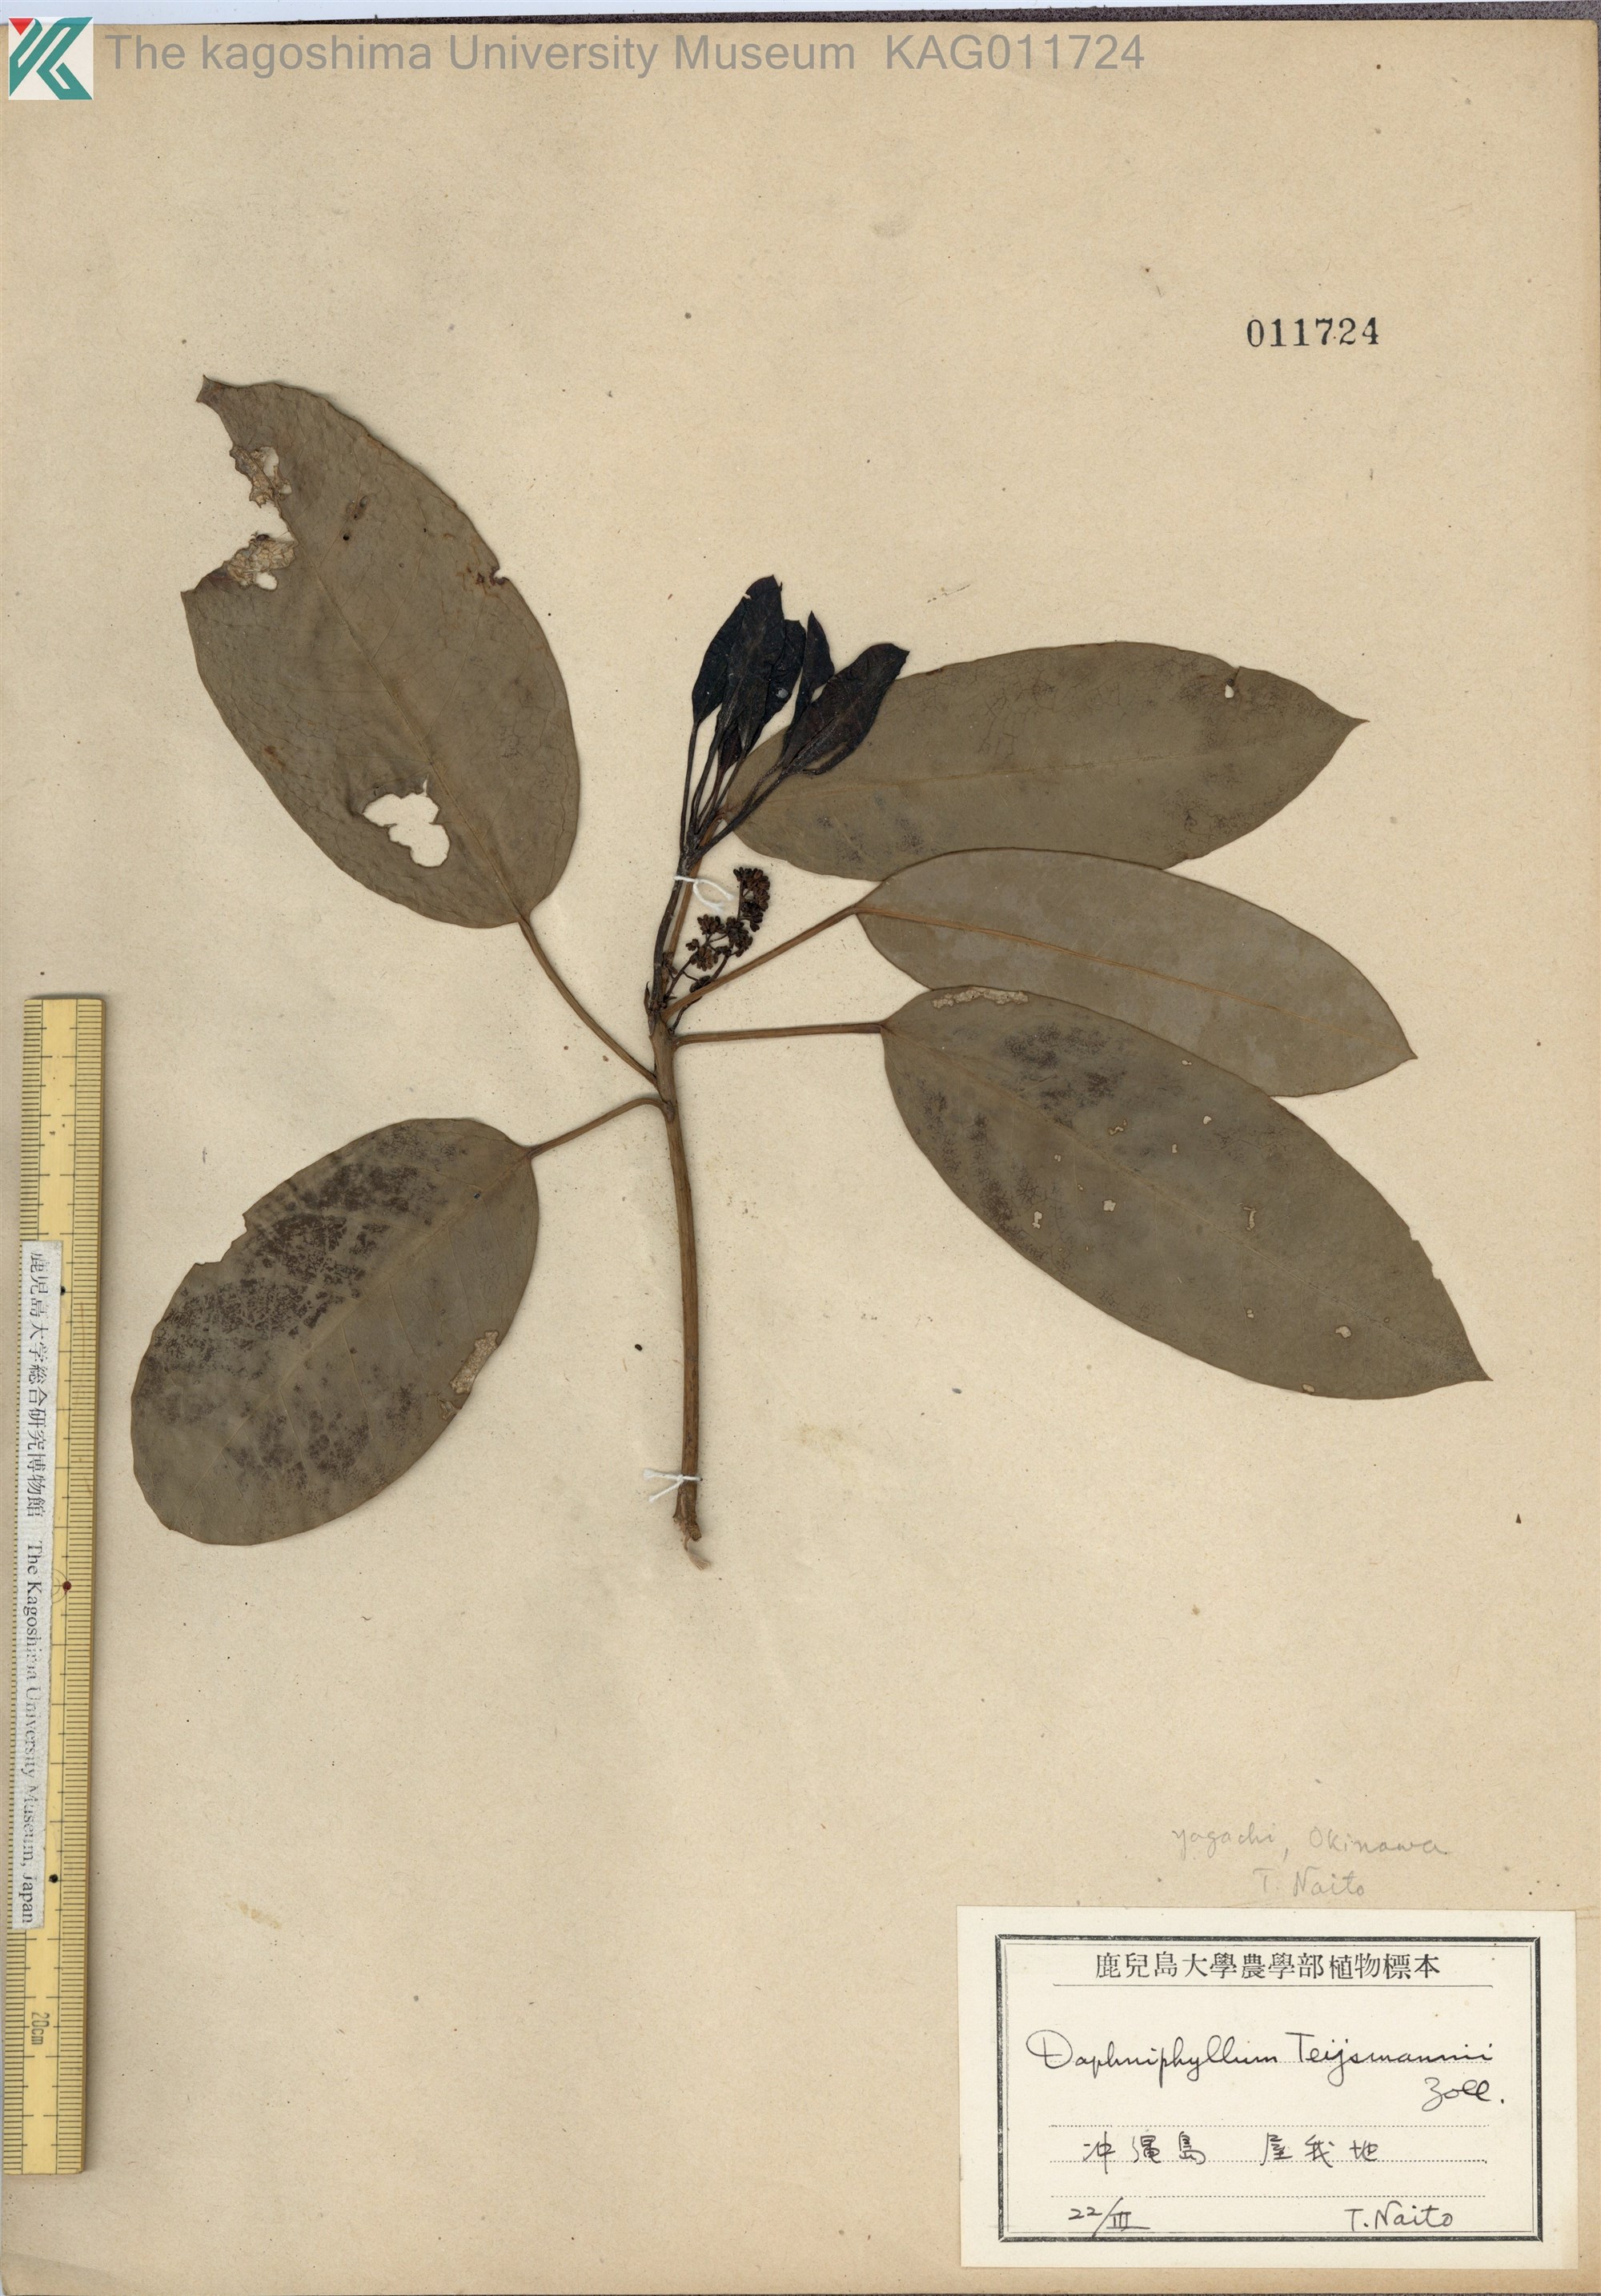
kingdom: Plantae
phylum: Tracheophyta
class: Magnoliopsida
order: Saxifragales
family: Daphniphyllaceae
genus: Daphniphyllum
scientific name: Daphniphyllum teijsmannii
